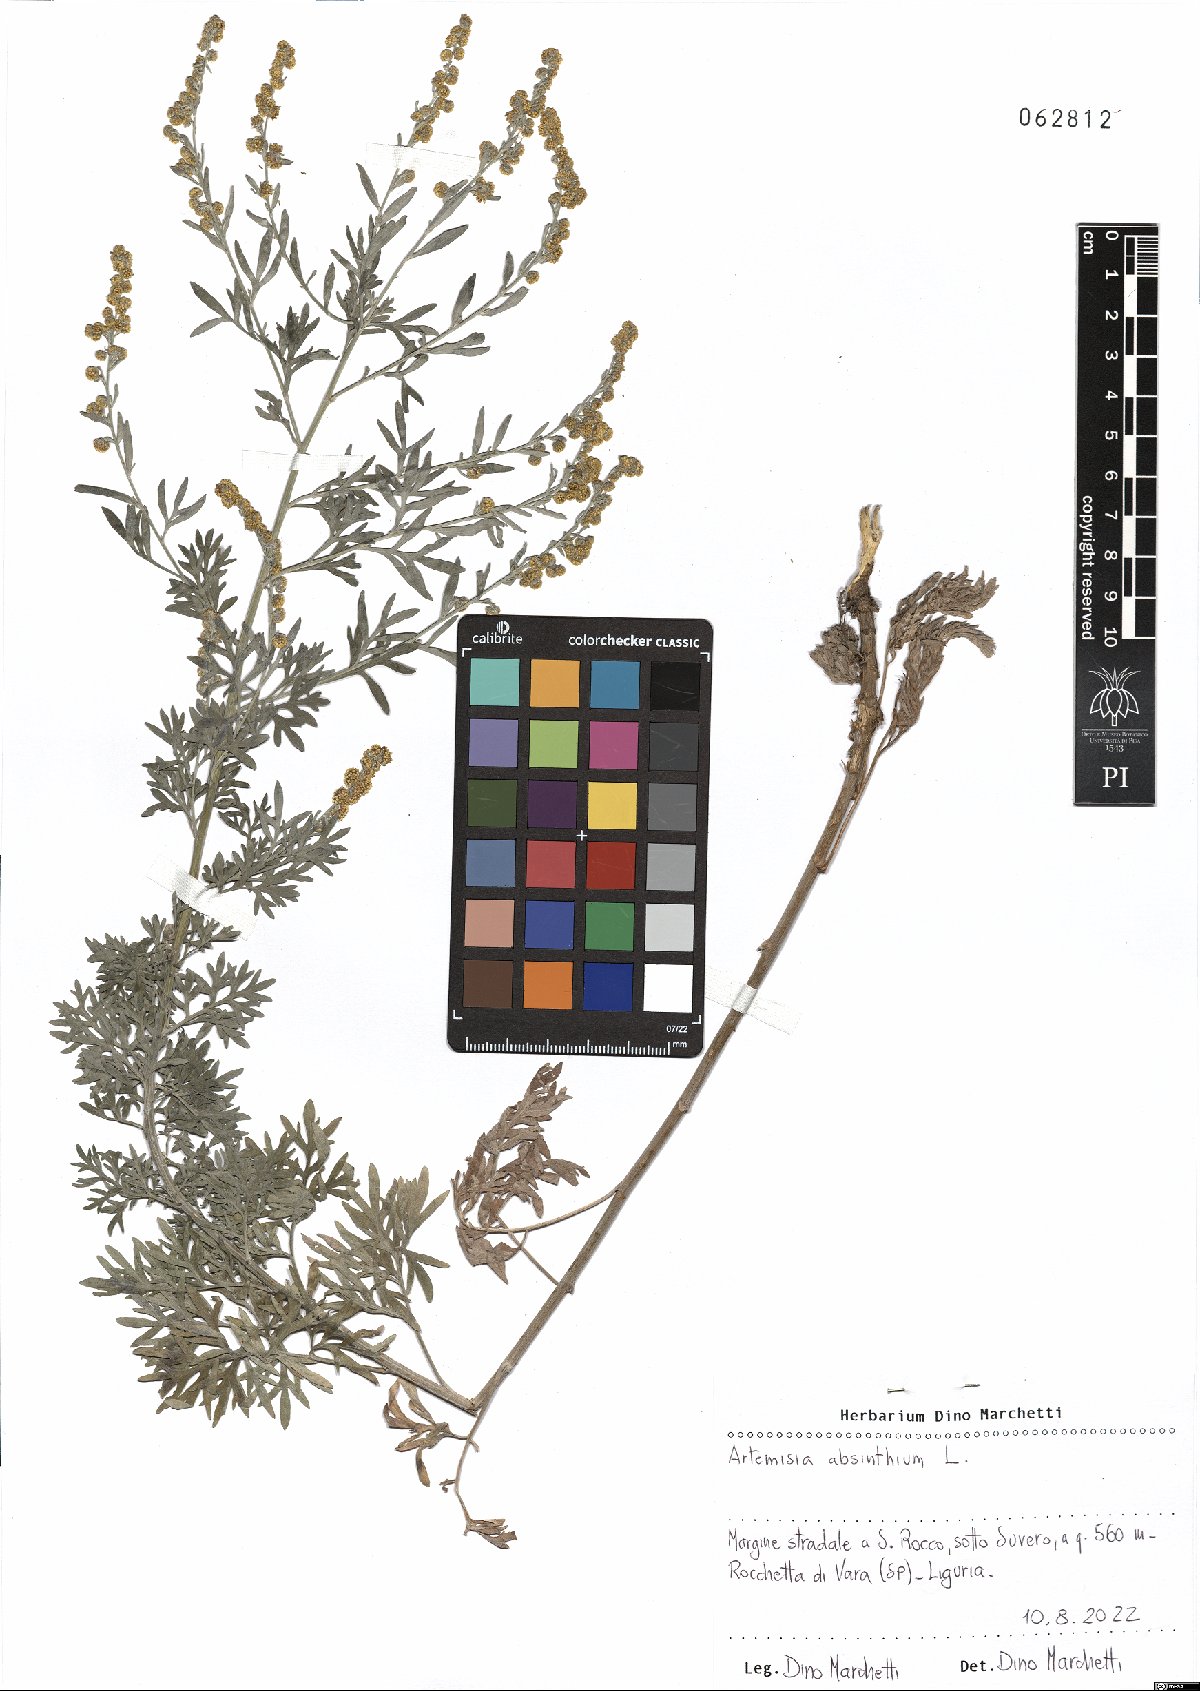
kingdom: Plantae
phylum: Tracheophyta
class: Magnoliopsida
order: Asterales
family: Asteraceae
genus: Artemisia
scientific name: Artemisia absinthium
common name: Wormwood
